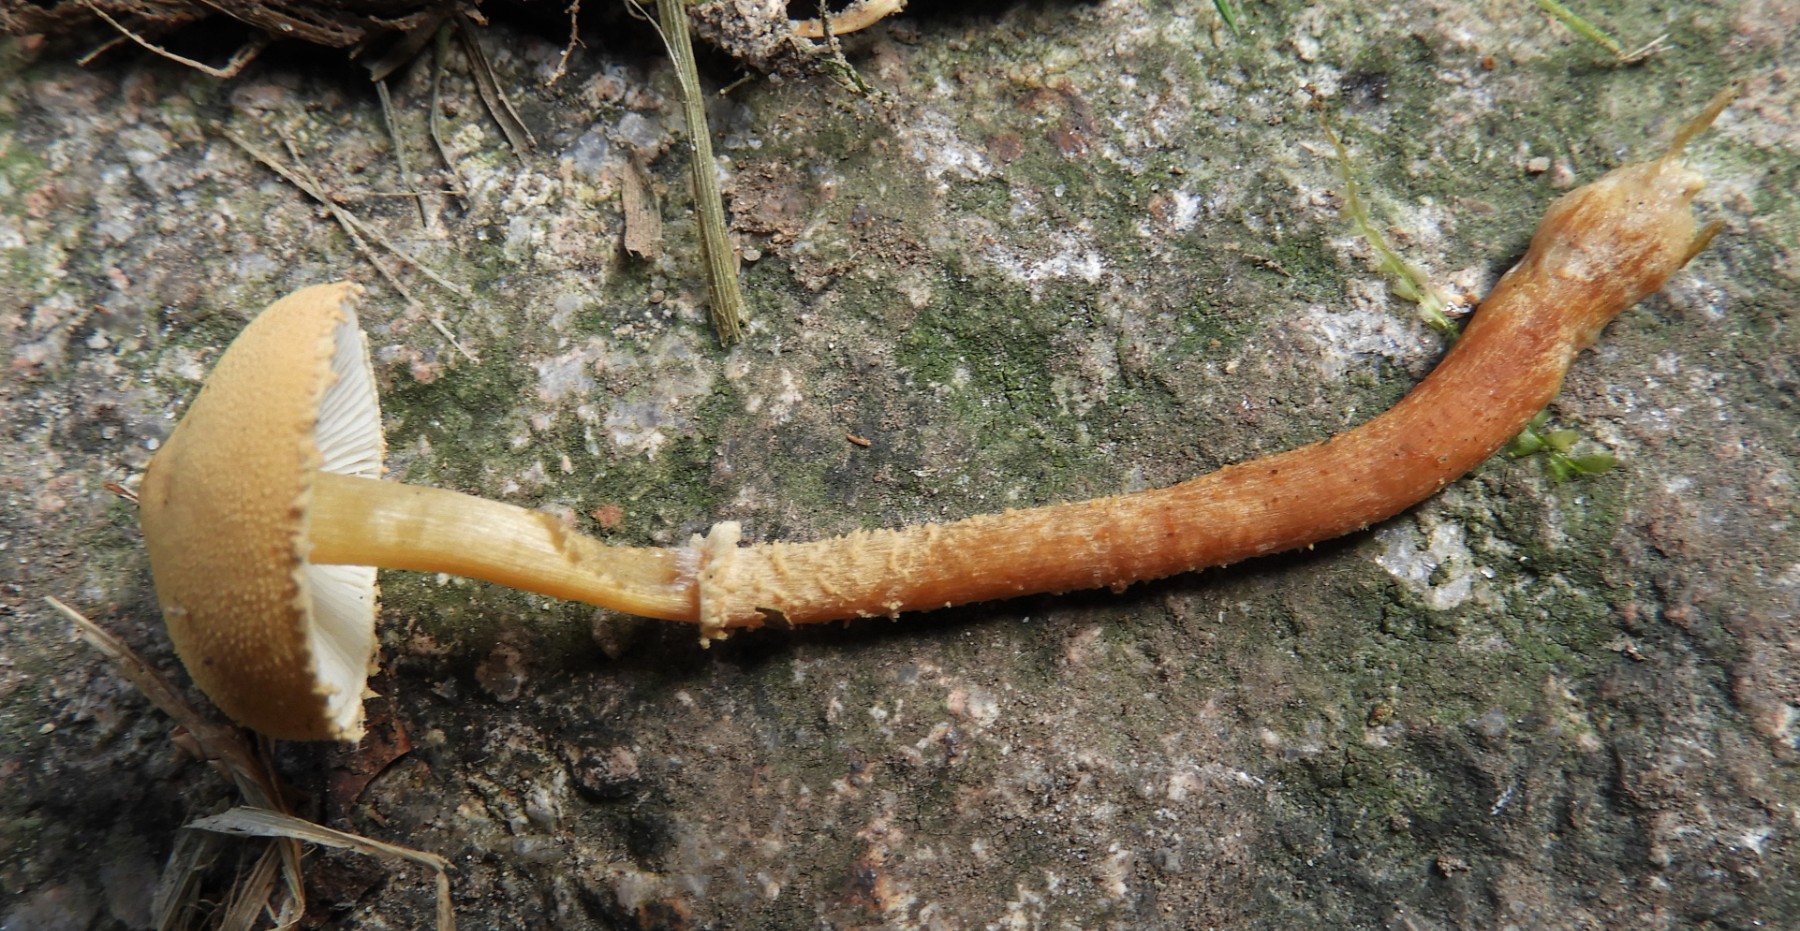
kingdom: Fungi
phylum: Basidiomycota
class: Agaricomycetes
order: Agaricales
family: Tricholomataceae
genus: Cystoderma
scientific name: Cystoderma amianthinum
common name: okkergul grynhat
